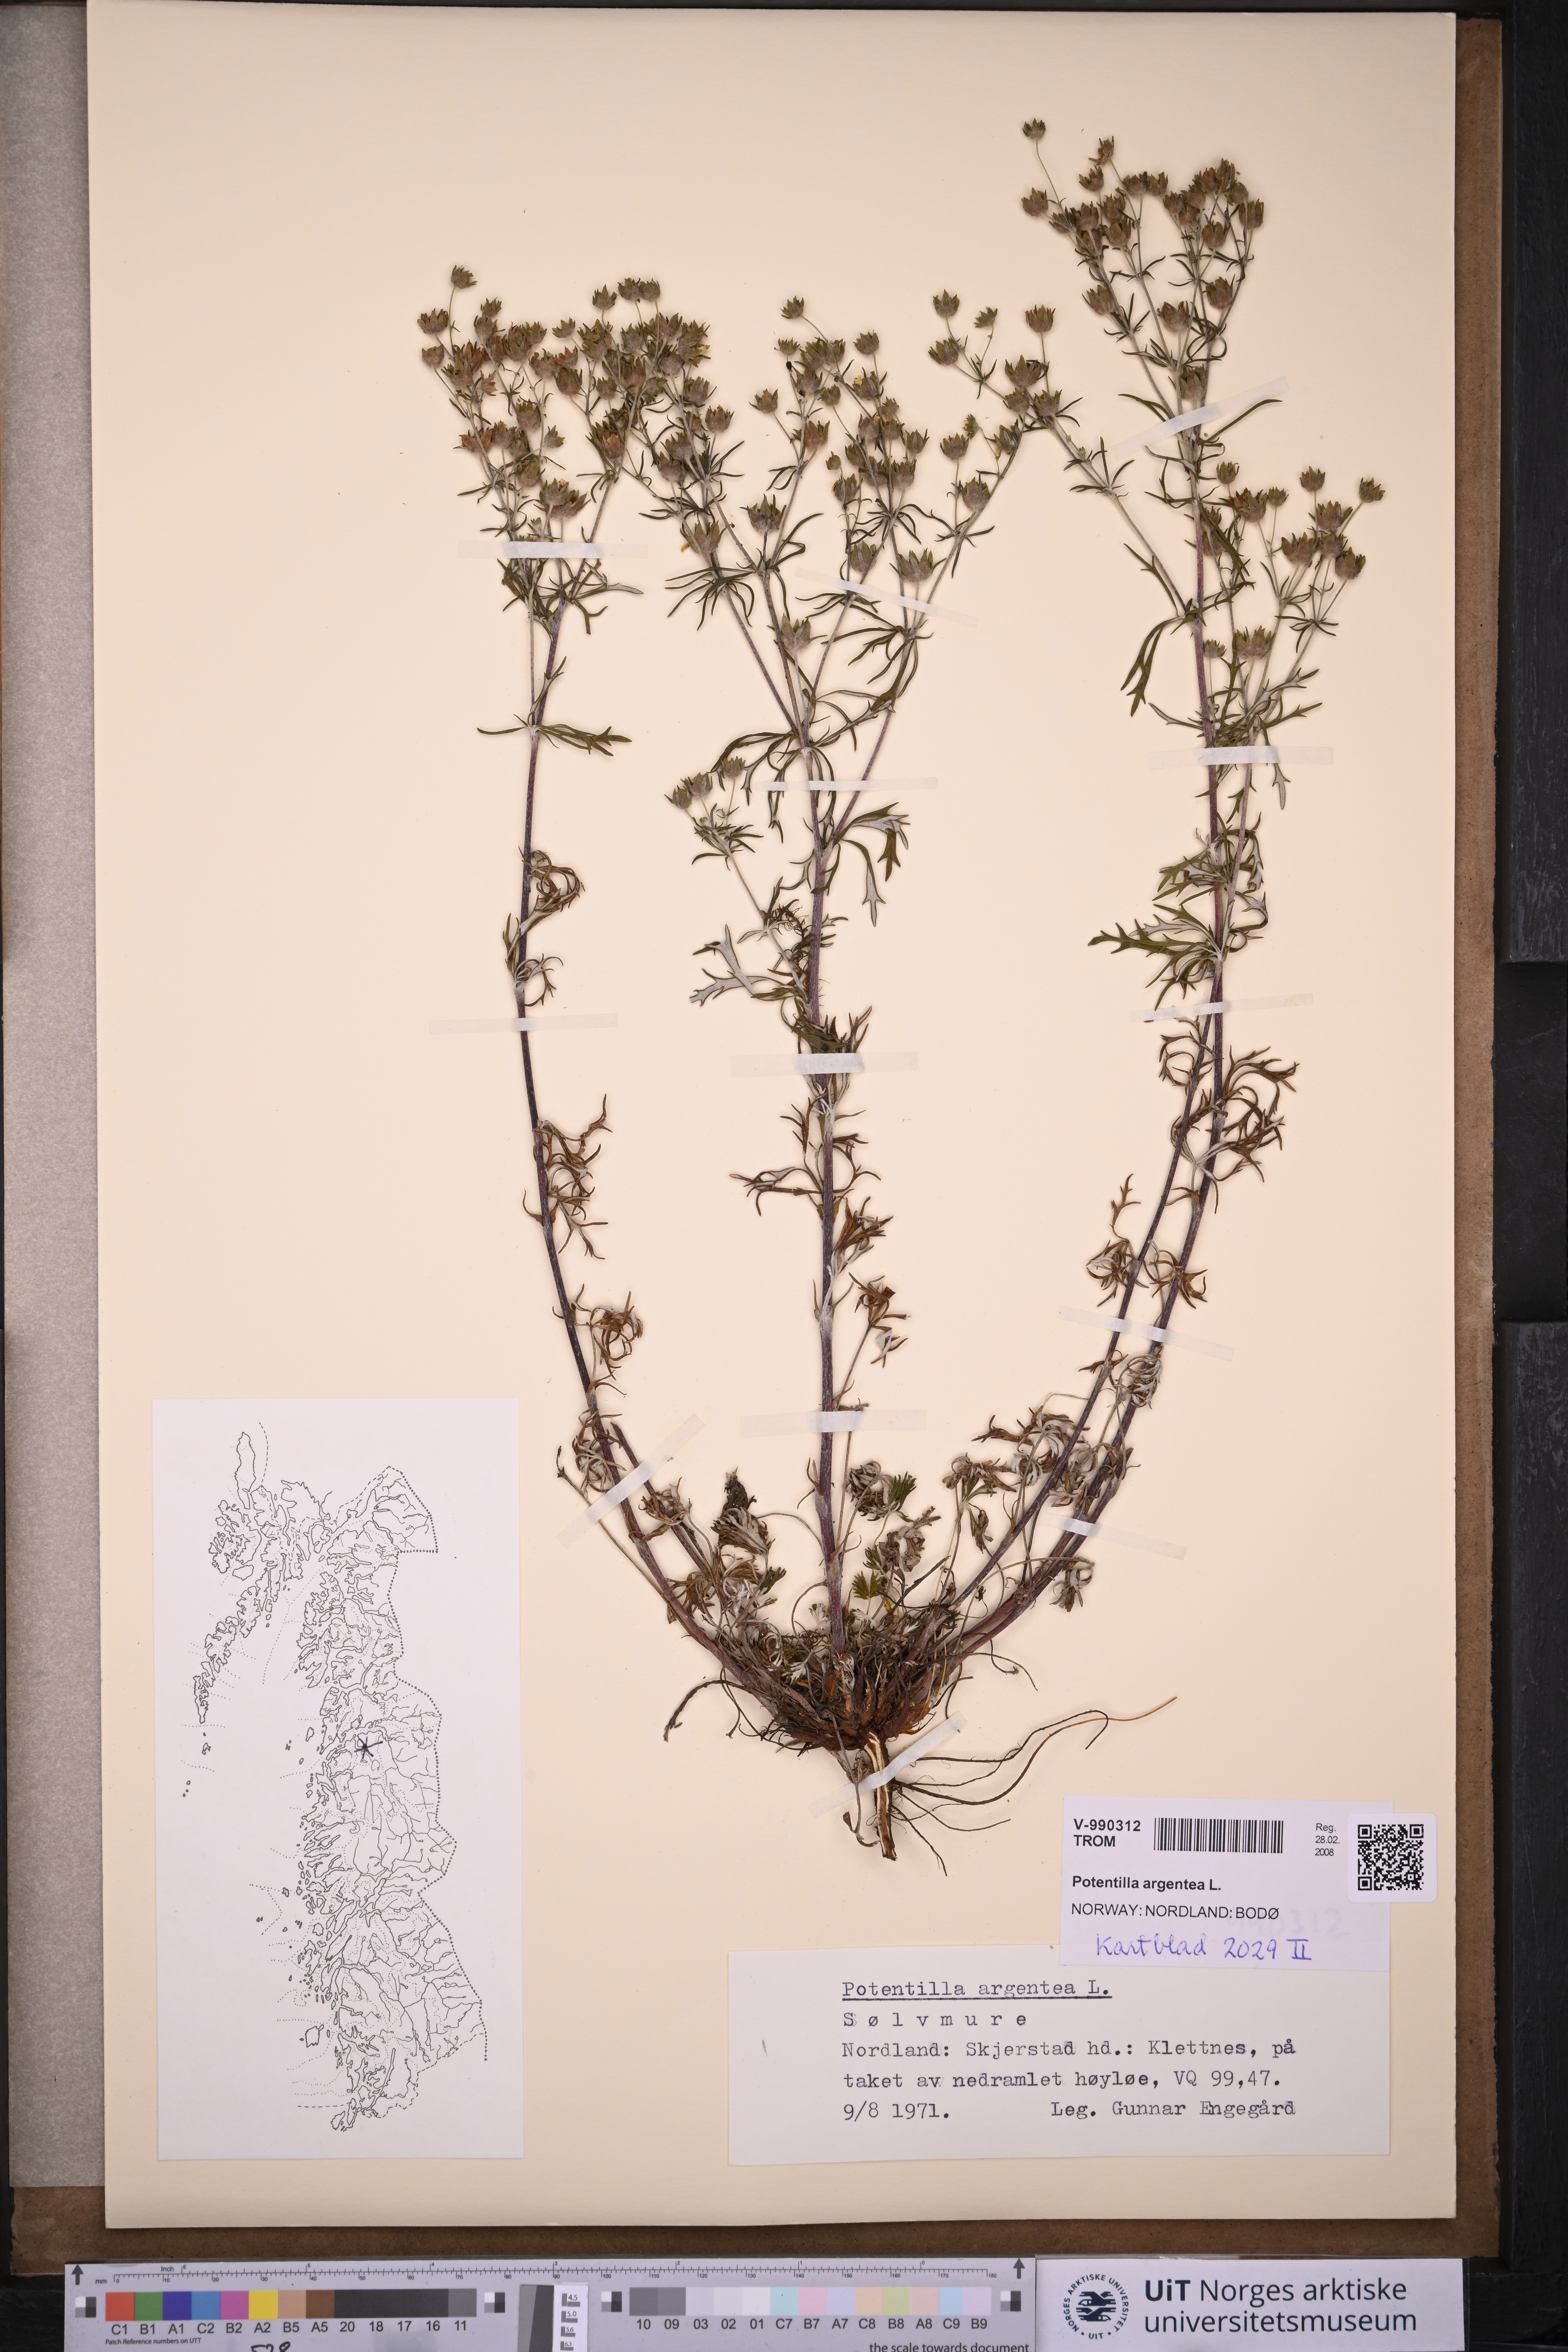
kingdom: Plantae
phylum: Tracheophyta
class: Magnoliopsida
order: Rosales
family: Rosaceae
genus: Potentilla
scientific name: Potentilla argentea
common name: Hoary cinquefoil
